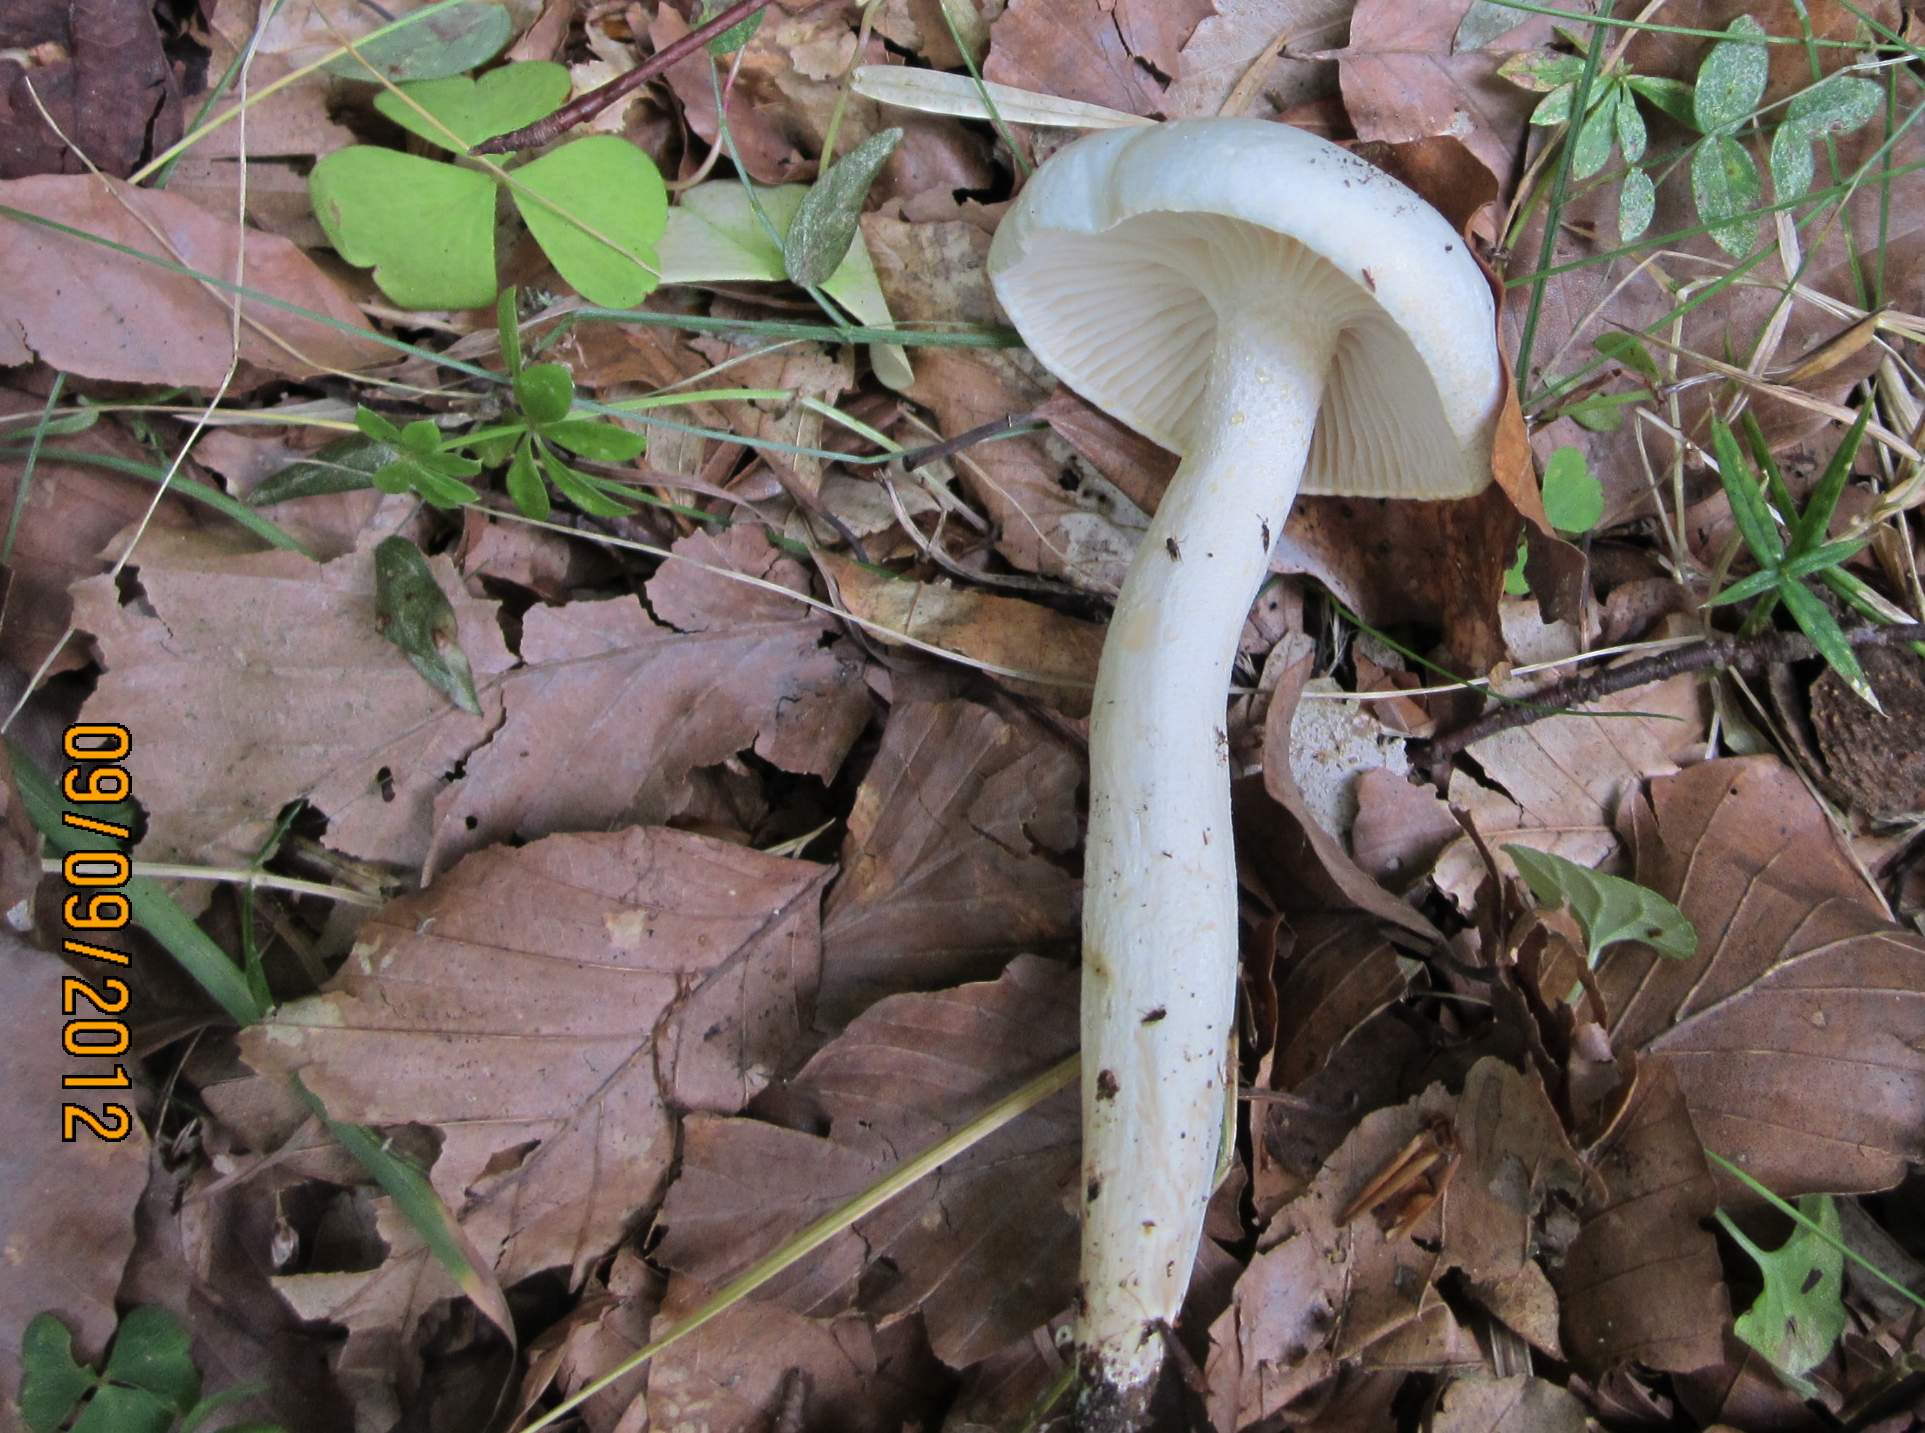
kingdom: Fungi
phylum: Basidiomycota
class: Agaricomycetes
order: Agaricales
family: Hygrophoraceae
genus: Hygrophorus
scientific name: Hygrophorus discoxanthus
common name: ildelugtende sneglehat
